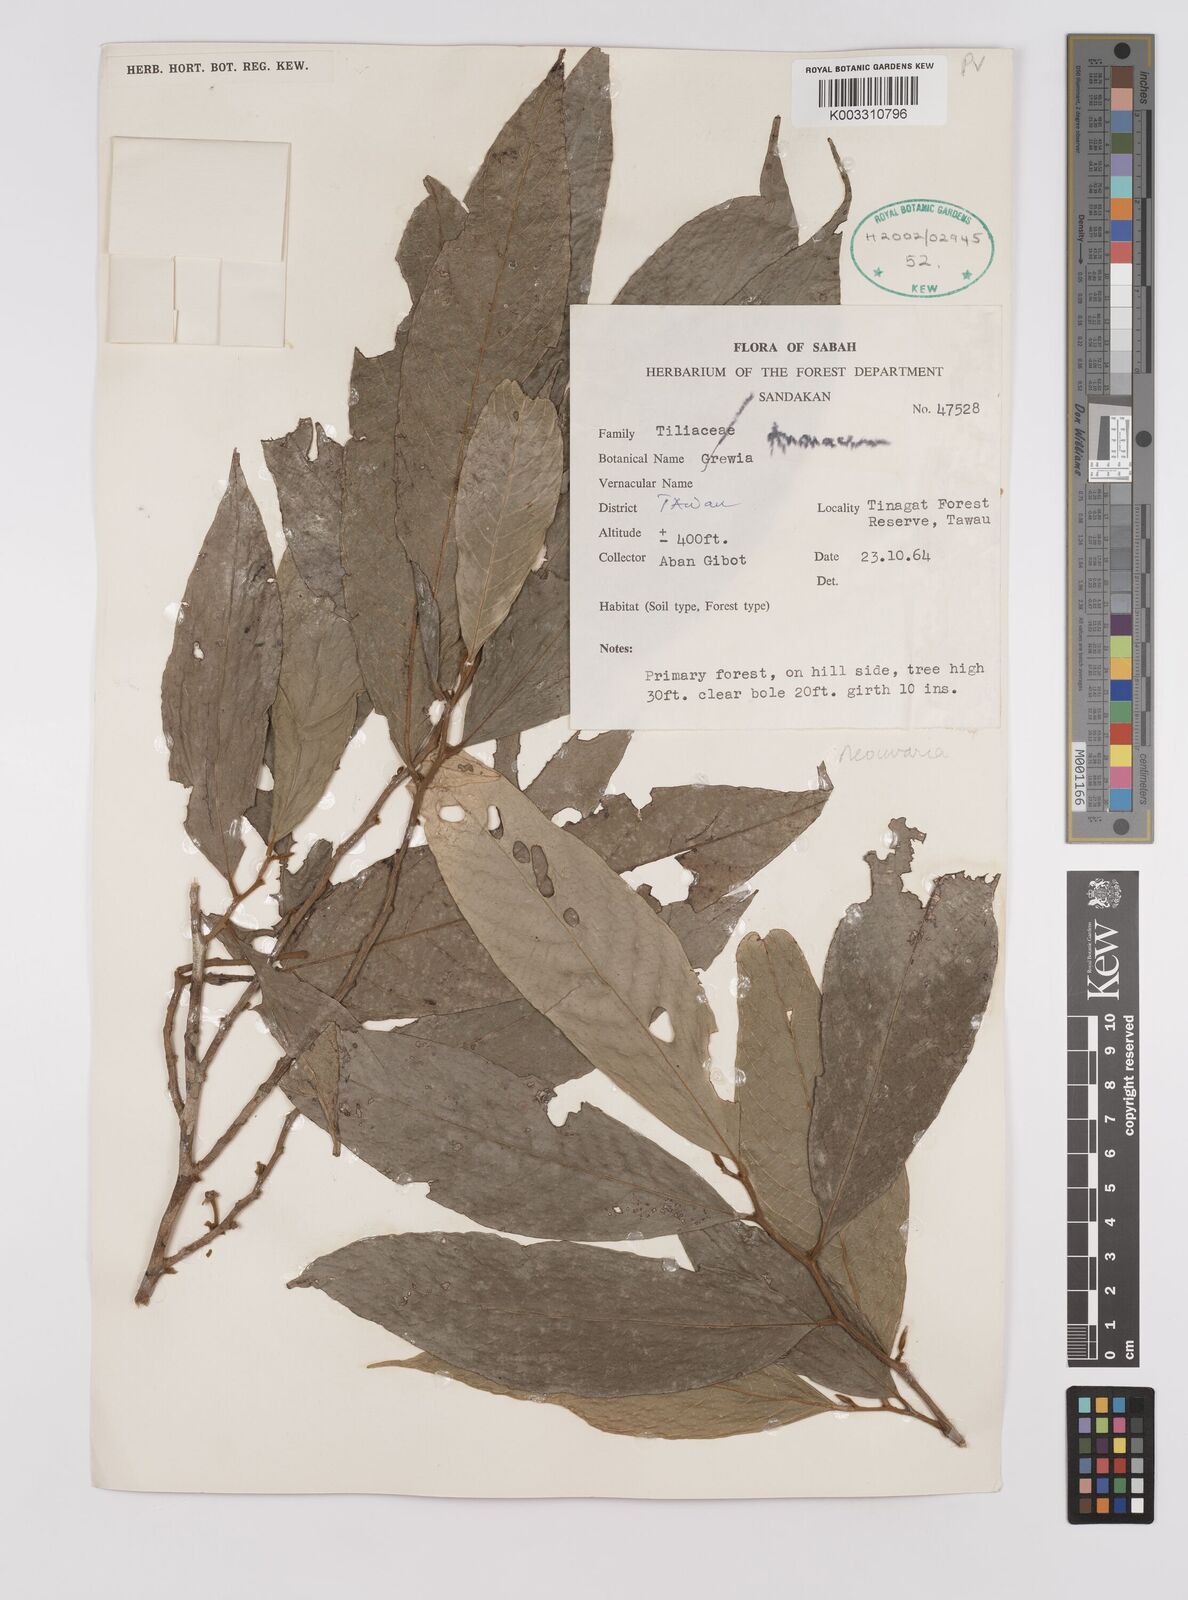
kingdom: Plantae
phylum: Tracheophyta
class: Magnoliopsida
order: Magnoliales
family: Annonaceae
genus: Neo-uvaria
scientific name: Neo-uvaria
